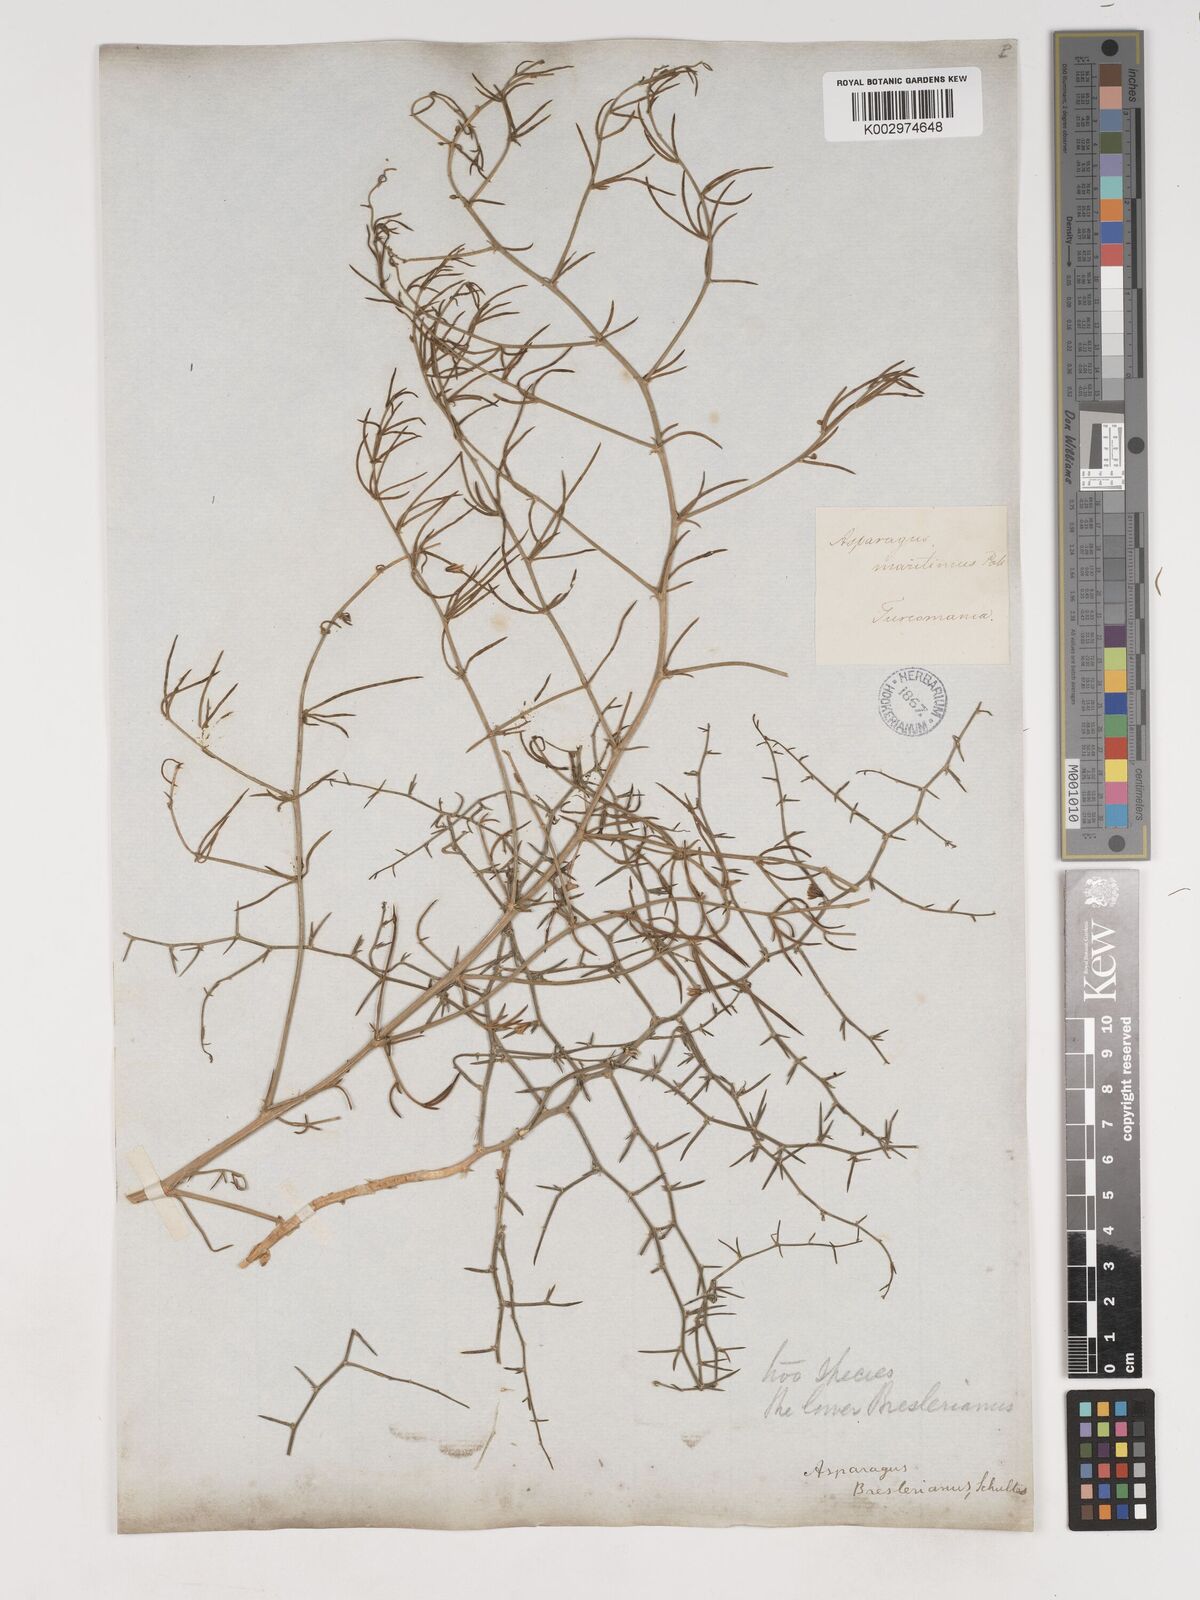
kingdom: Plantae
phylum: Tracheophyta
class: Liliopsida
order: Asparagales
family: Asparagaceae
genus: Asparagus
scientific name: Asparagus breslerianus
